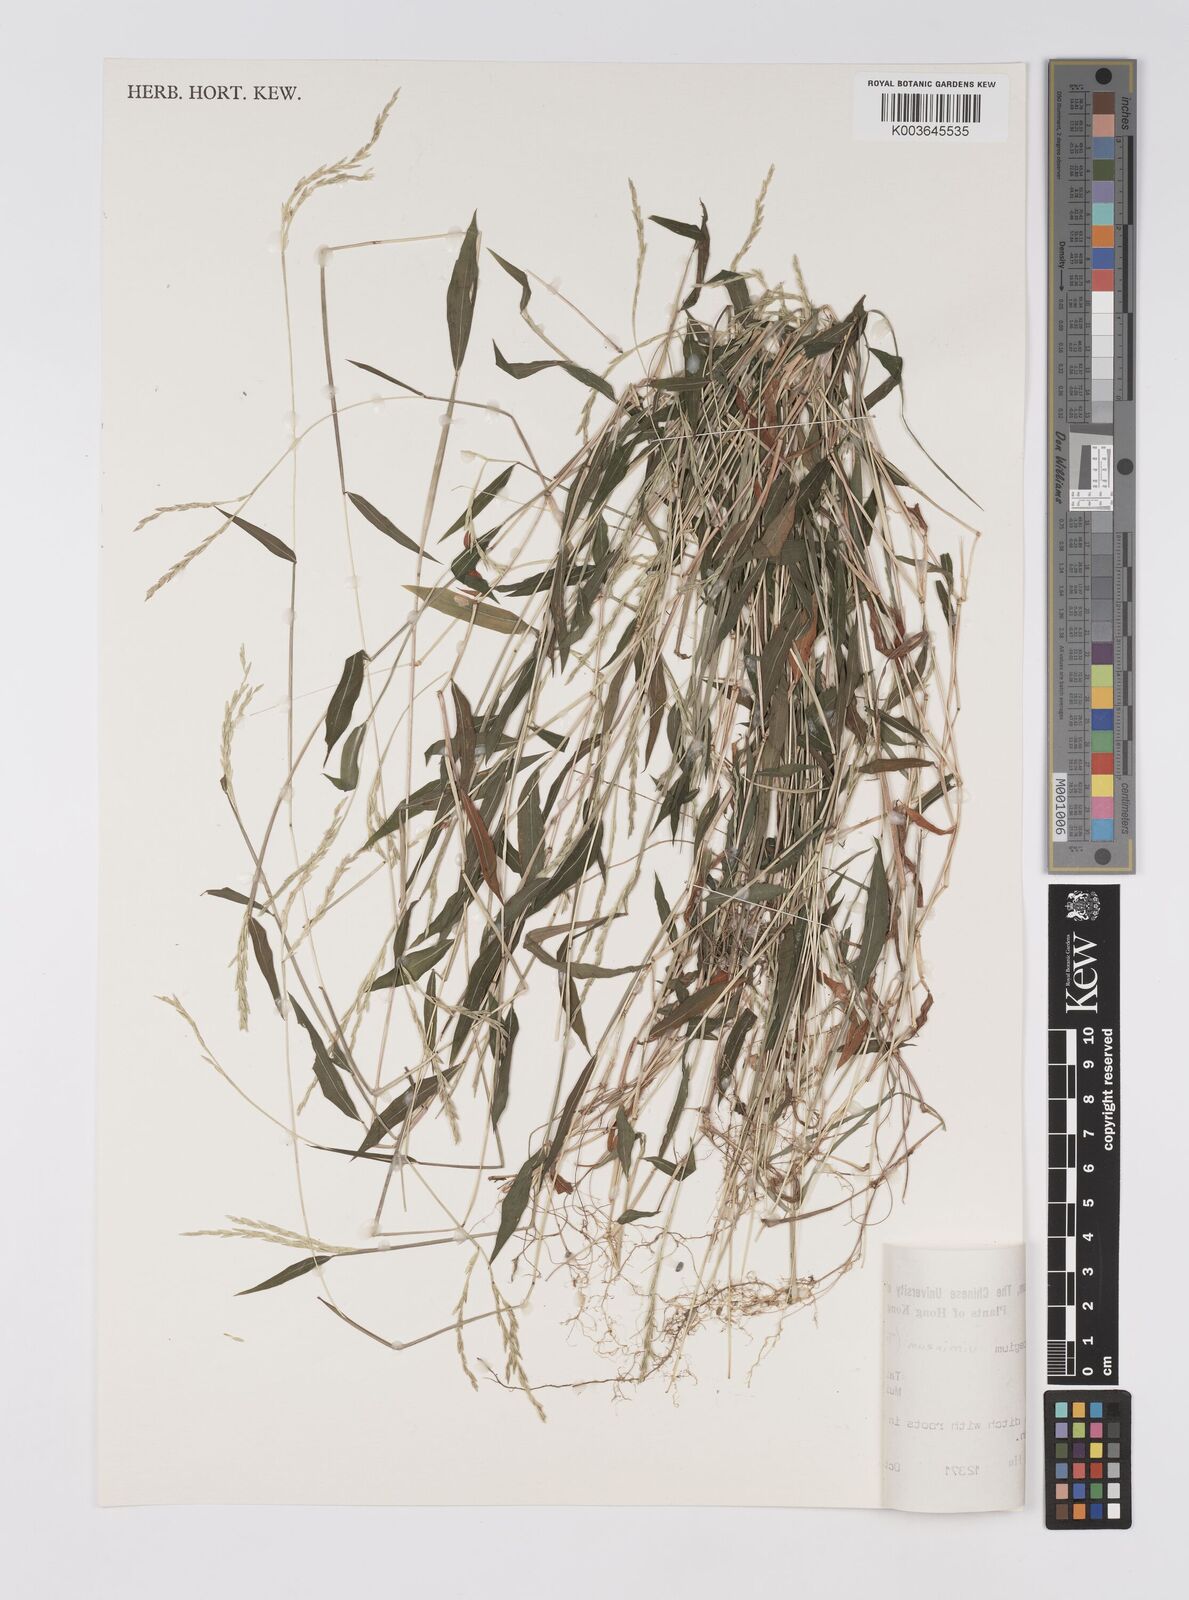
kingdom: Plantae
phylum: Tracheophyta
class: Liliopsida
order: Poales
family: Poaceae
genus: Microstegium
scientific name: Microstegium vimineum
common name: Japanese stiltgrass
